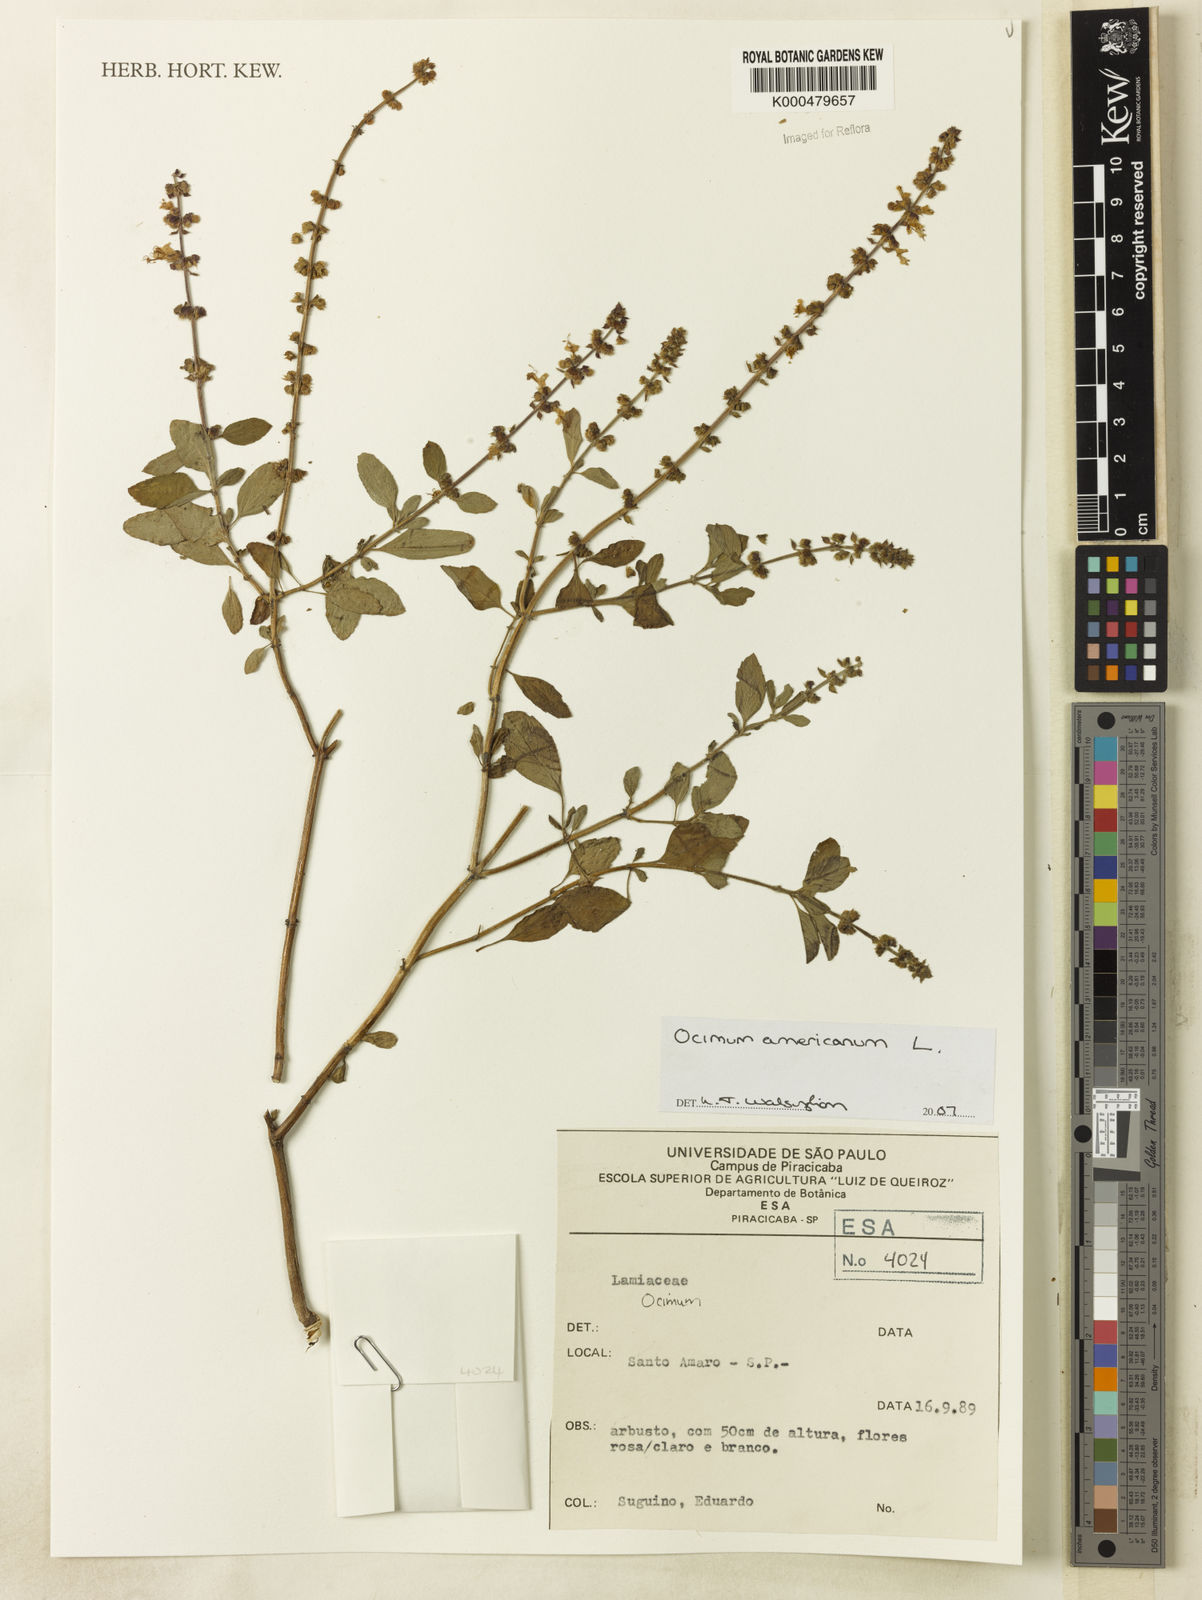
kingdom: Plantae
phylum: Tracheophyta
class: Magnoliopsida
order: Lamiales
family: Lamiaceae
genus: Ocimum
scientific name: Ocimum americanum
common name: American basil
